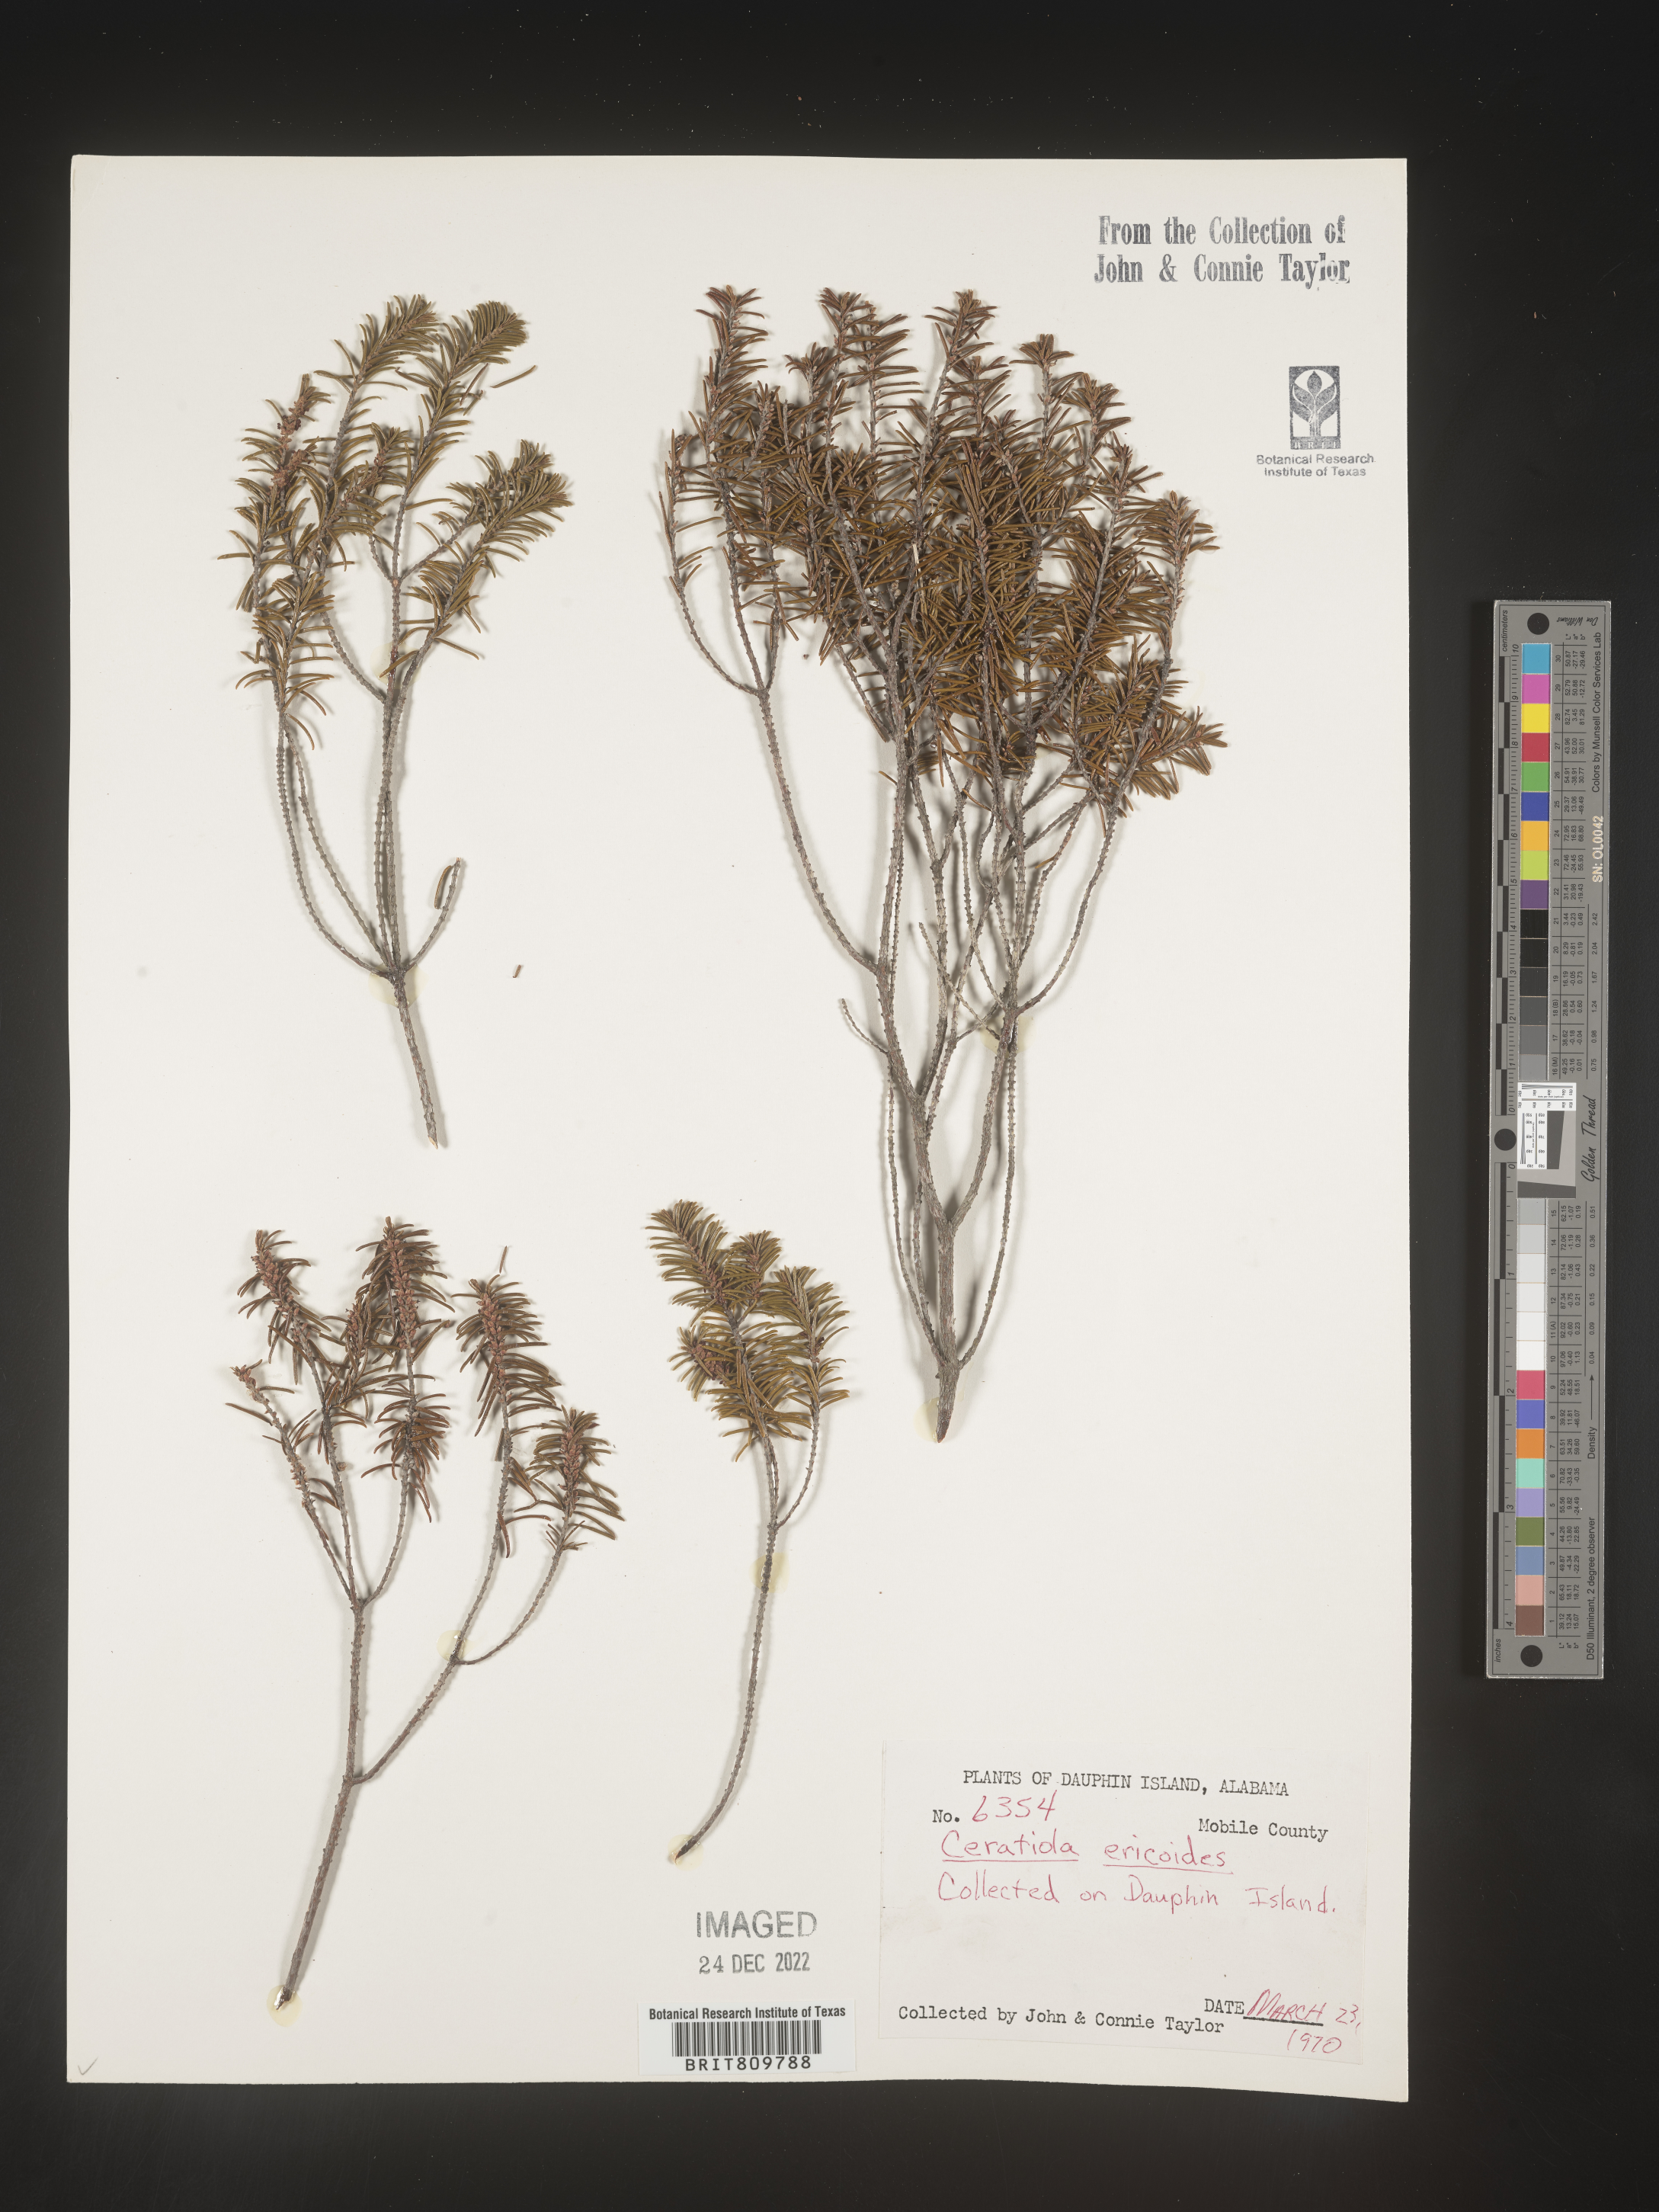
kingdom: Plantae
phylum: Tracheophyta
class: Magnoliopsida
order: Ericales
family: Ericaceae
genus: Ceratiola
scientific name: Ceratiola ericoides
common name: Sandhill-rosemary
